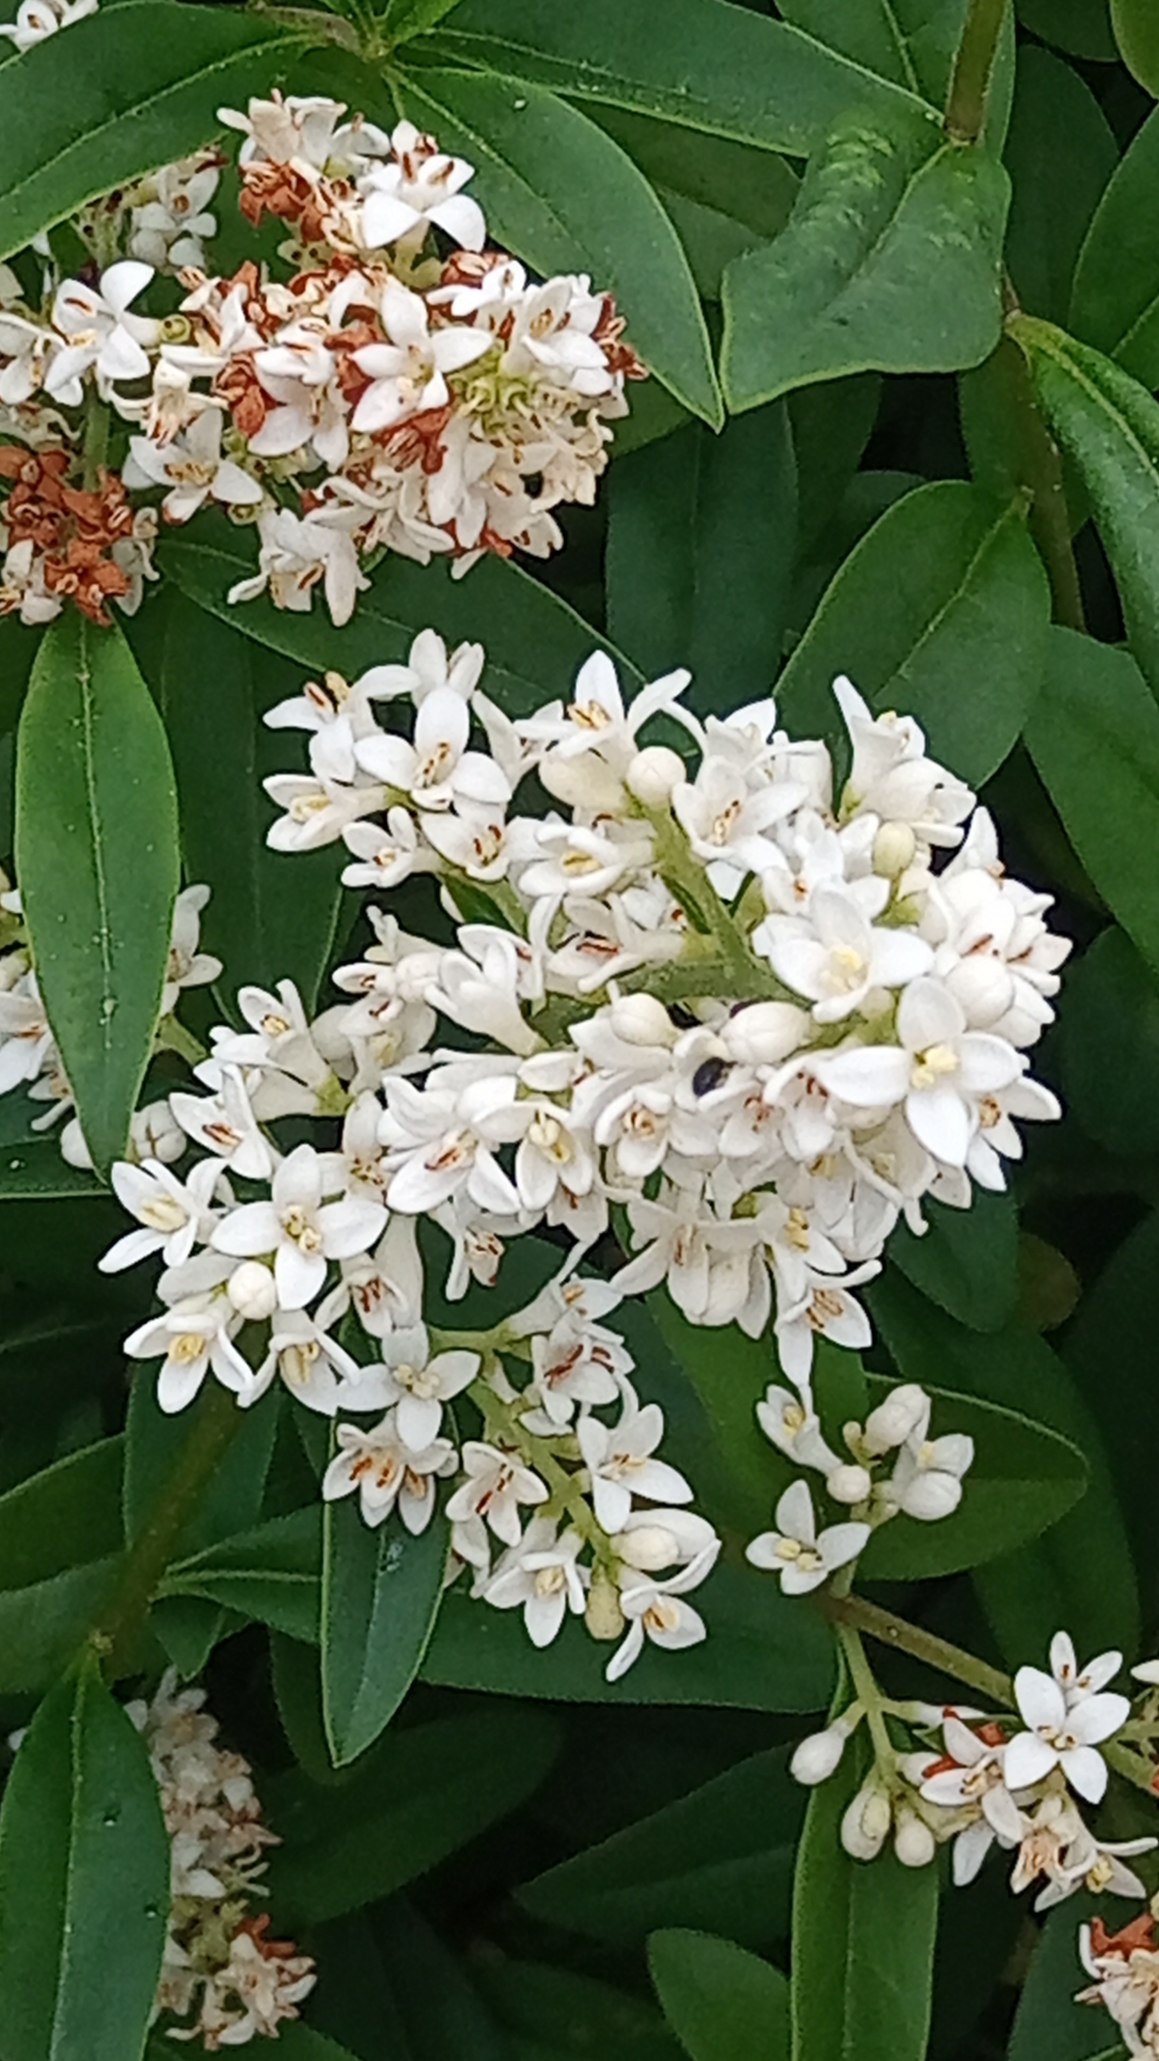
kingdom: Plantae
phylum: Tracheophyta
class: Magnoliopsida
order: Lamiales
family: Oleaceae
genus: Ligustrum
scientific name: Ligustrum vulgare
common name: Liguster
